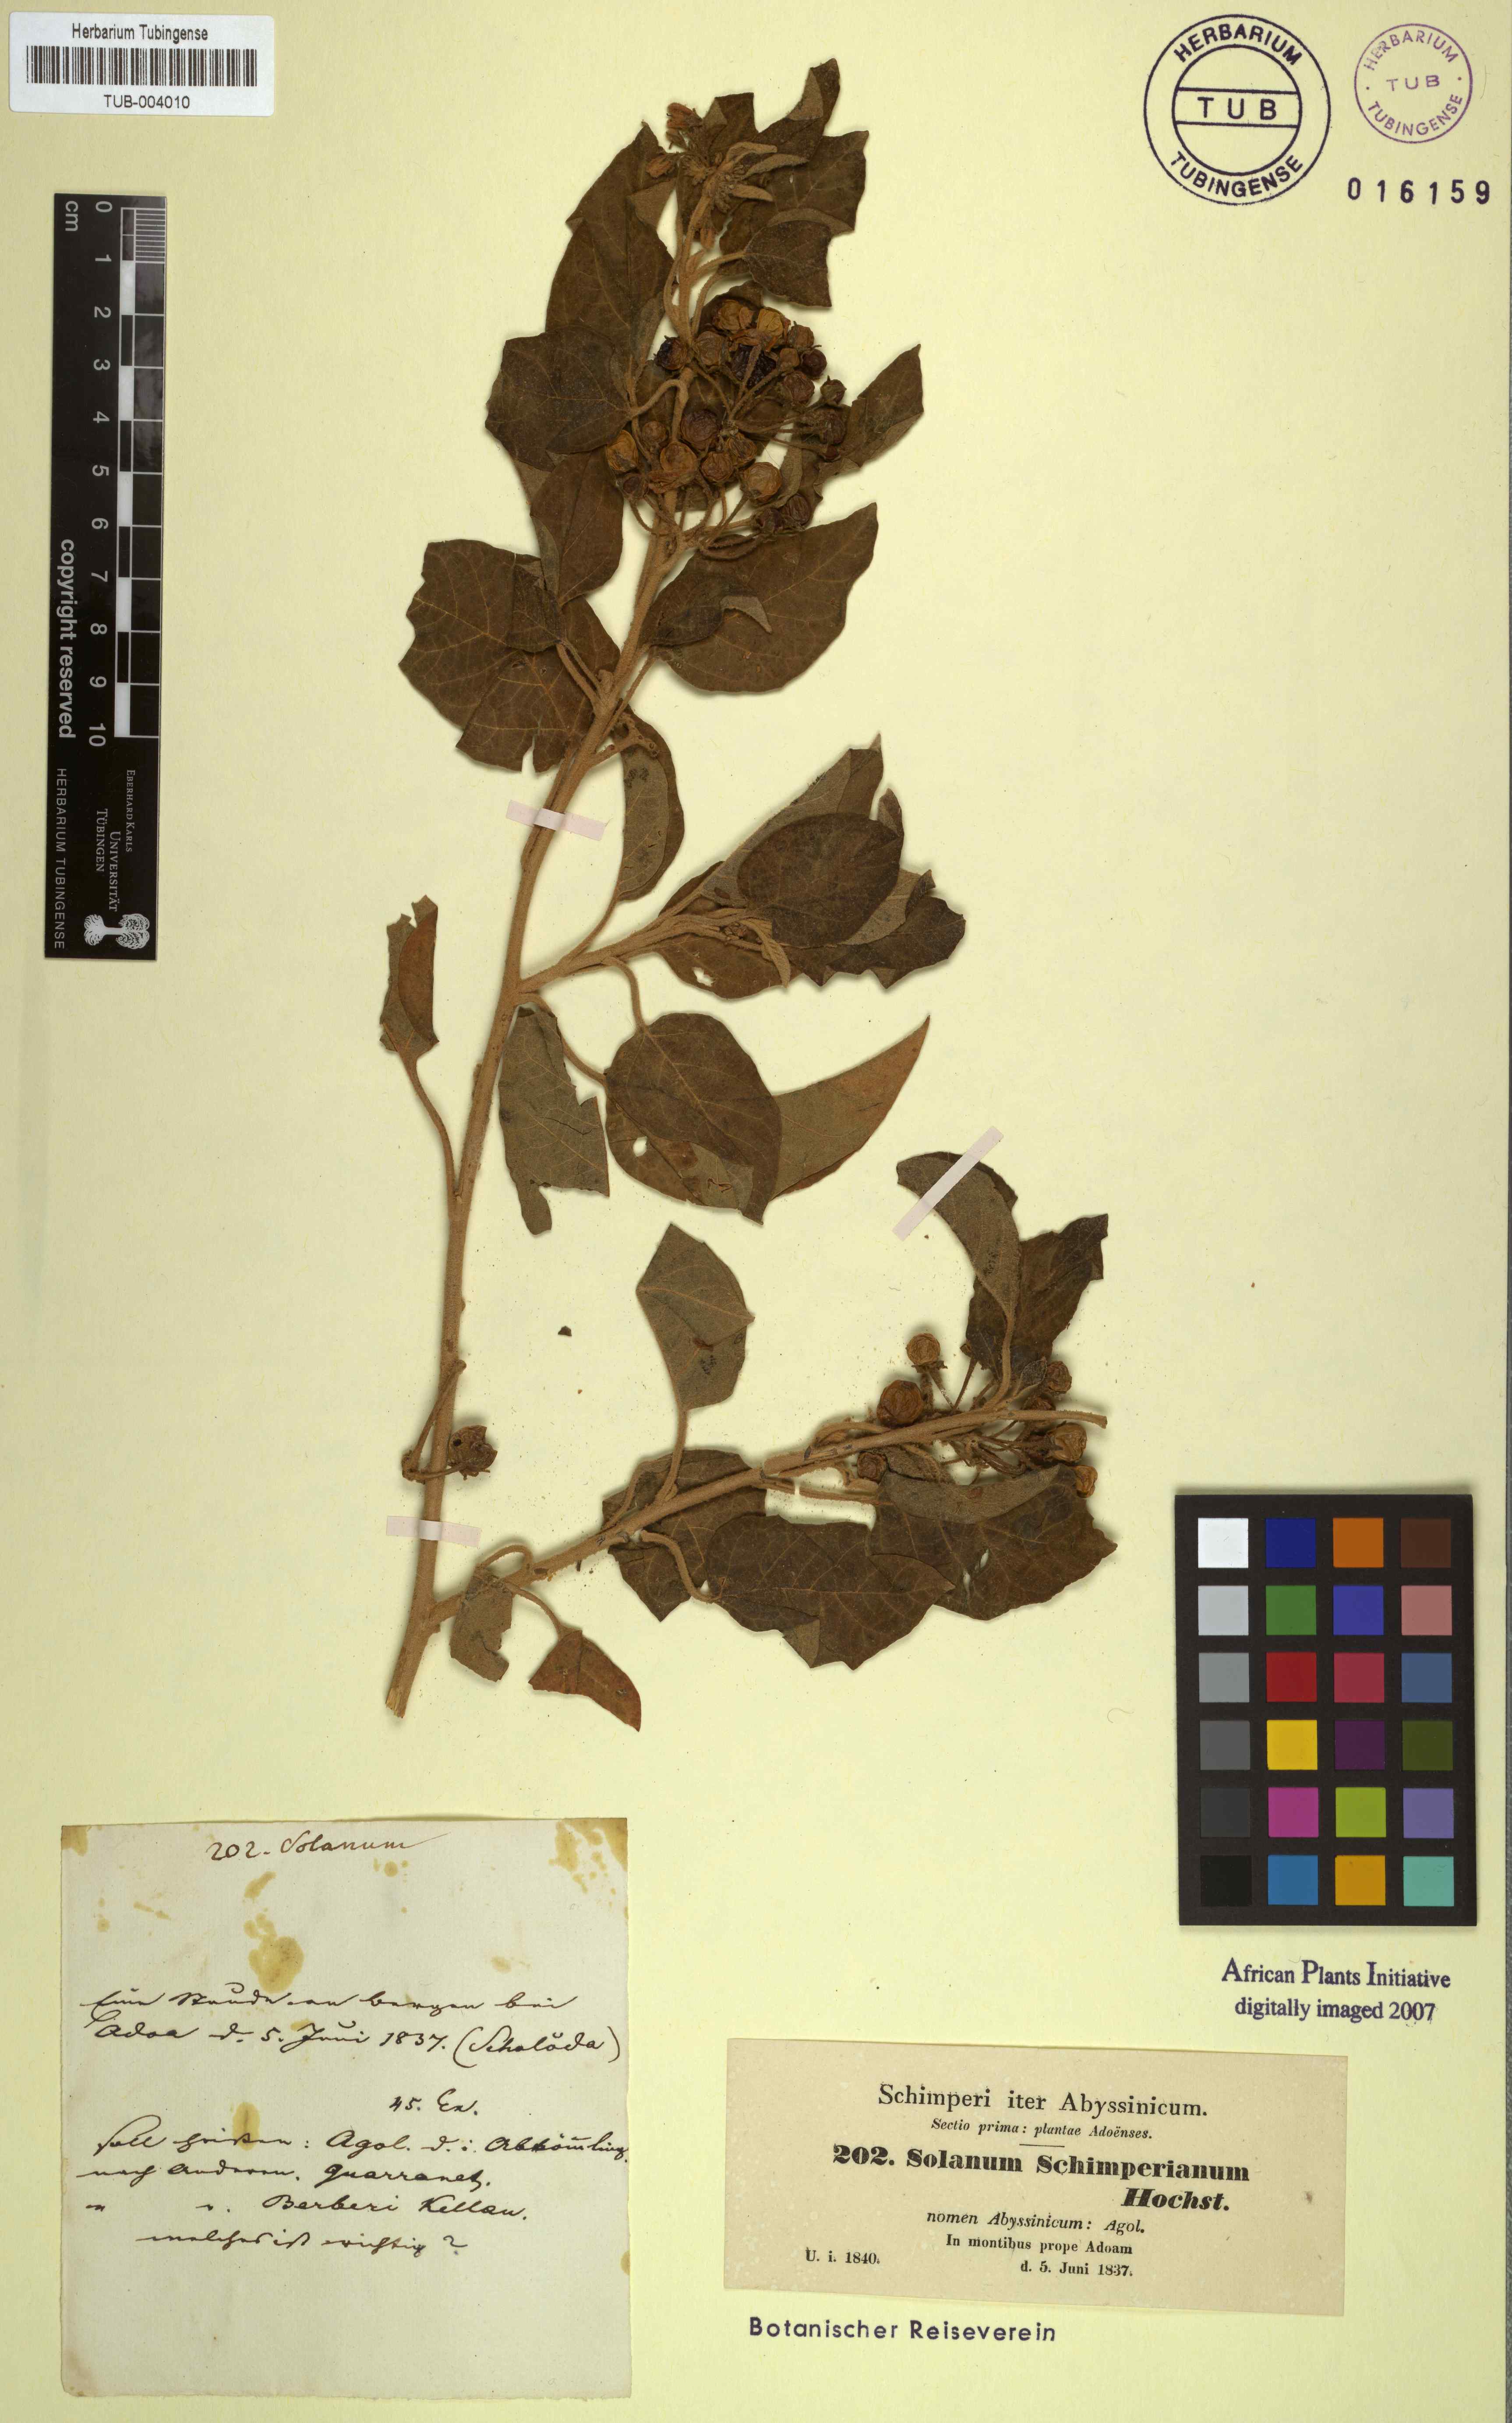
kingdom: Plantae
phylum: Tracheophyta
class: Magnoliopsida
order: Solanales
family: Solanaceae
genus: Solanum
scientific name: Solanum schimperianum
